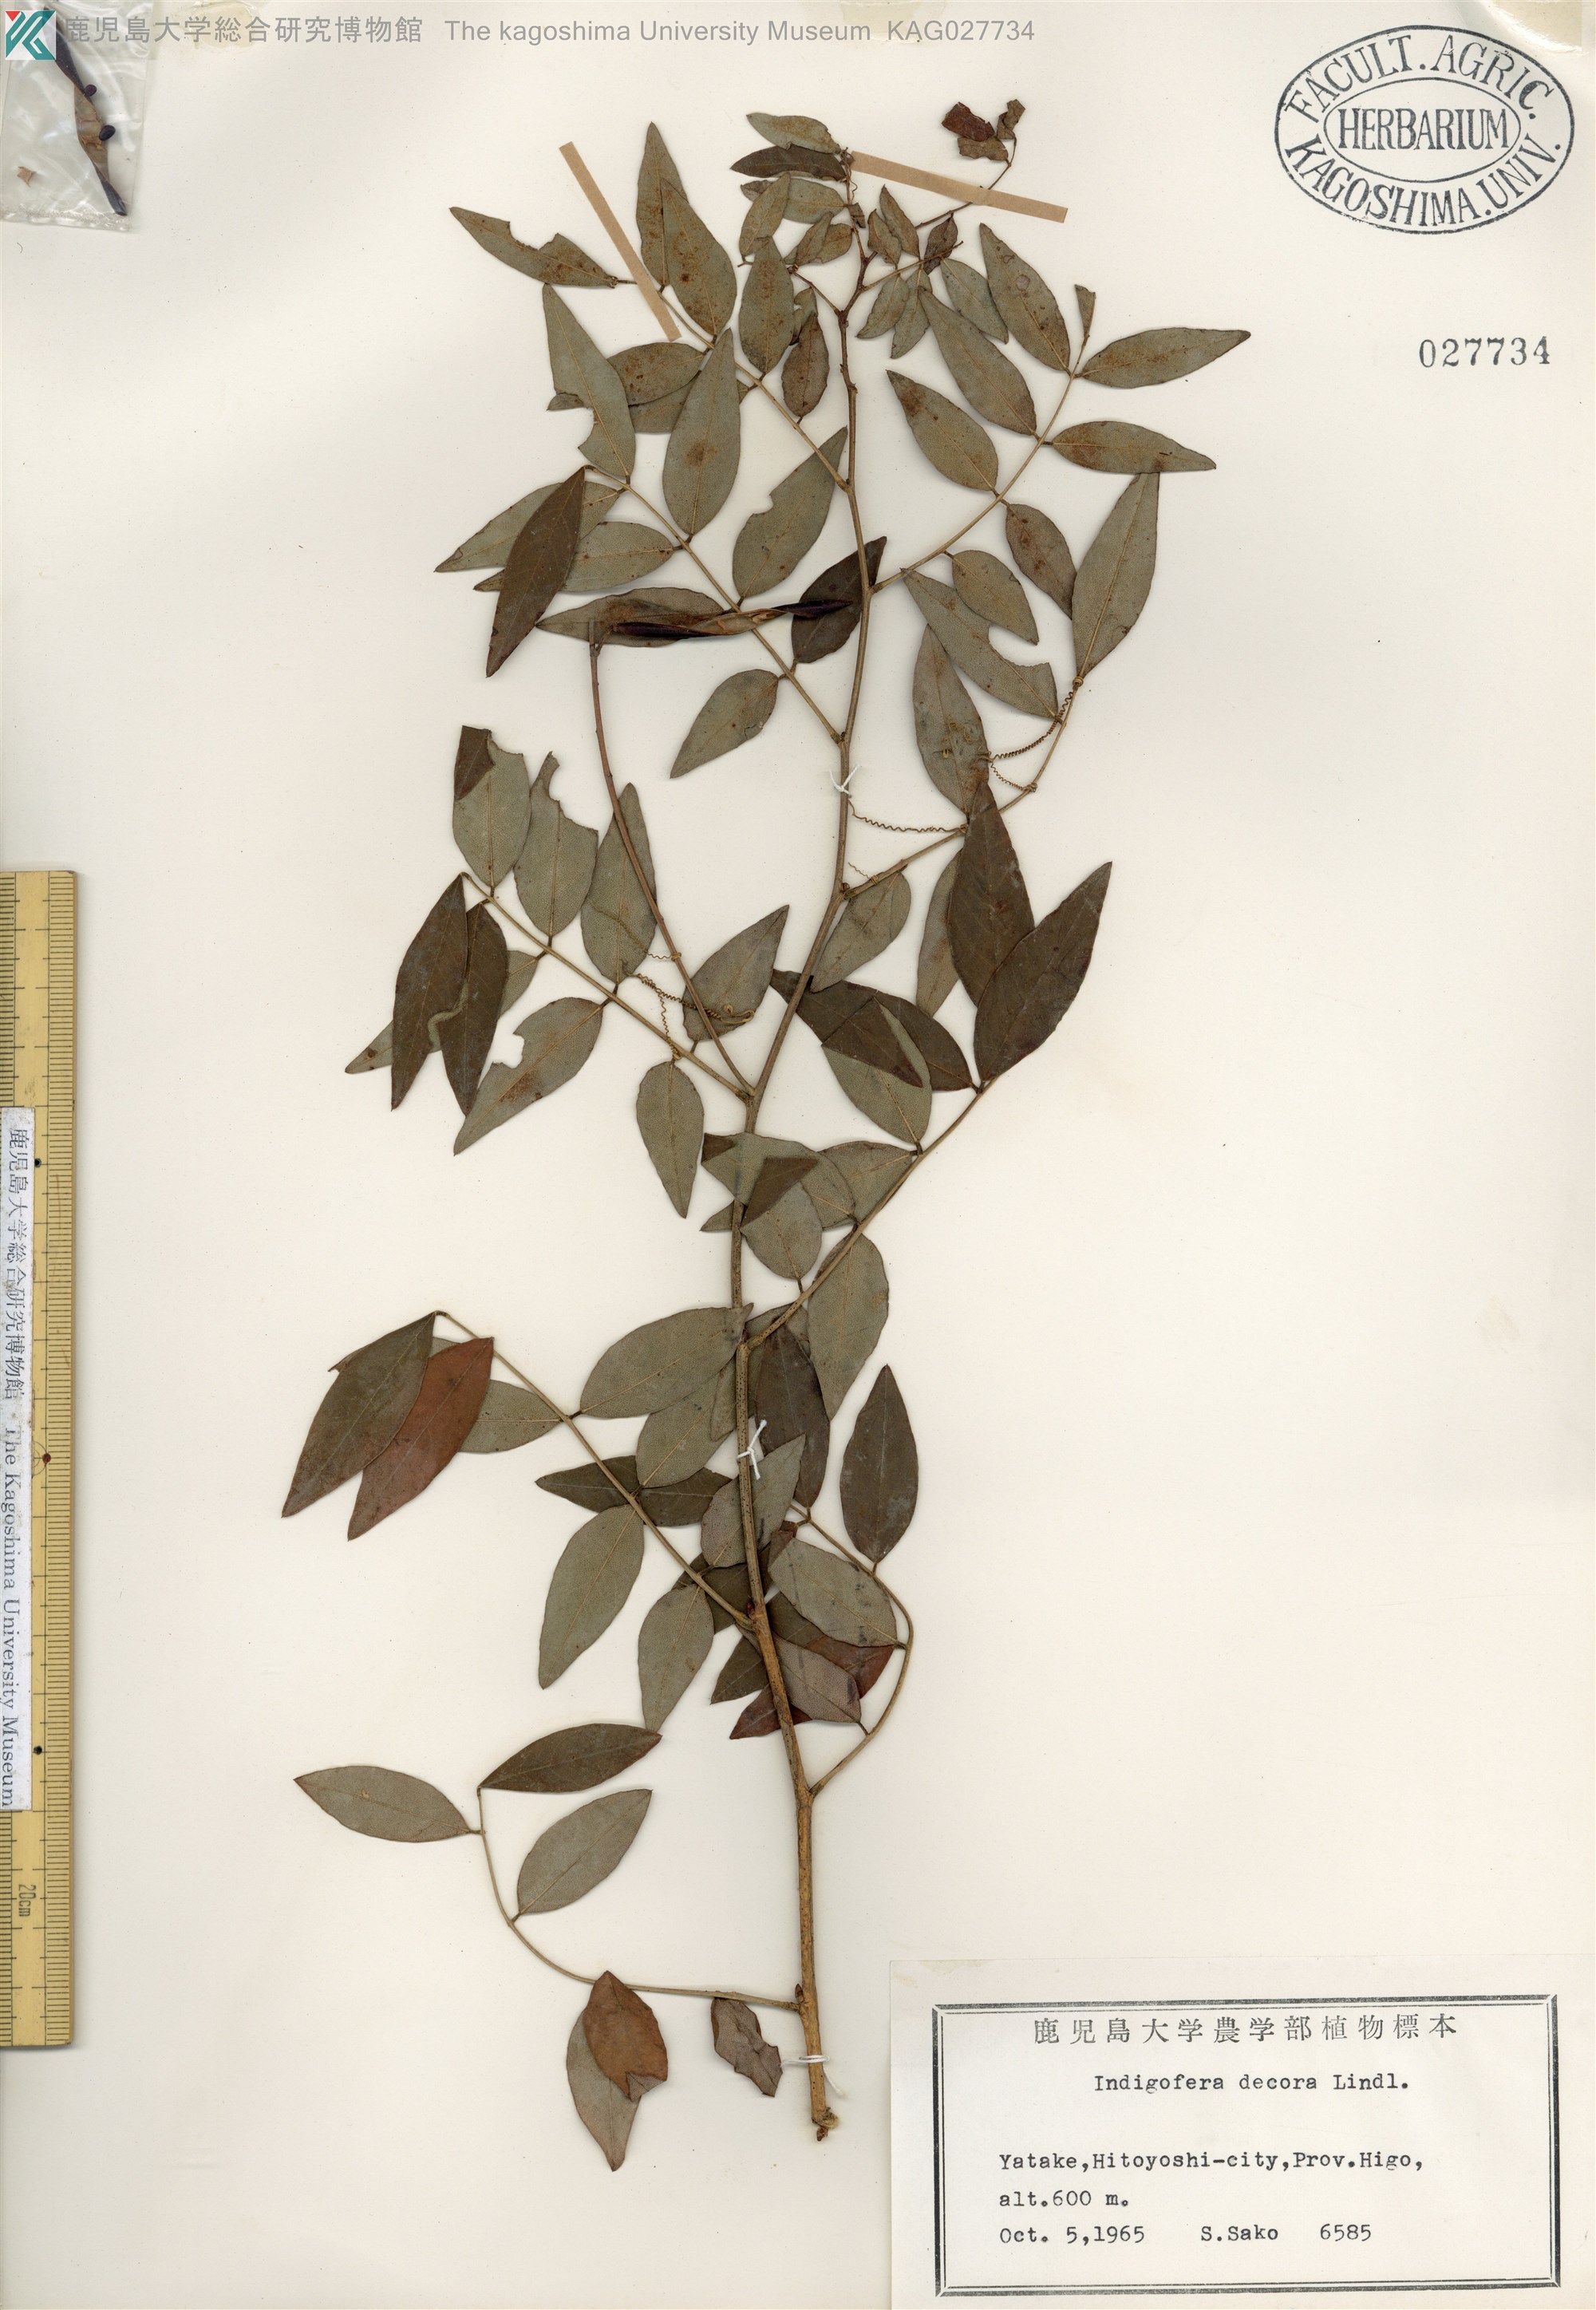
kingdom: Plantae
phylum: Tracheophyta
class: Magnoliopsida
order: Fabales
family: Fabaceae
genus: Indigofera
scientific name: Indigofera incarnata
